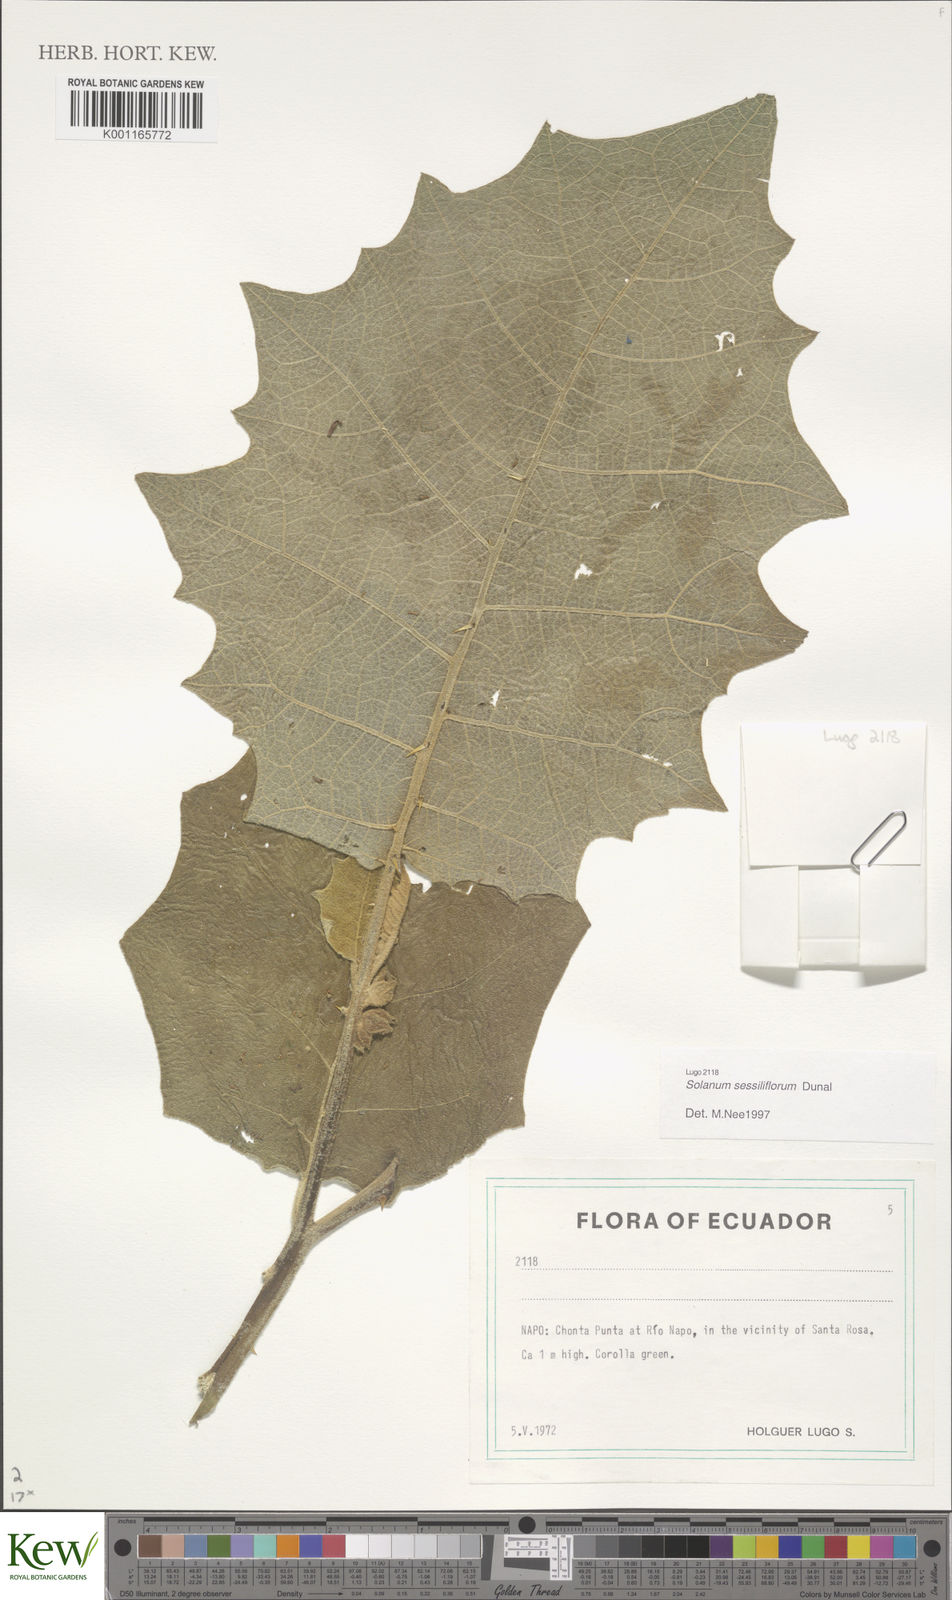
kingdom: Plantae
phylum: Tracheophyta
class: Magnoliopsida
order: Solanales
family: Solanaceae
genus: Solanum
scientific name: Solanum sessiliflorum
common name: Orinoco-apple
